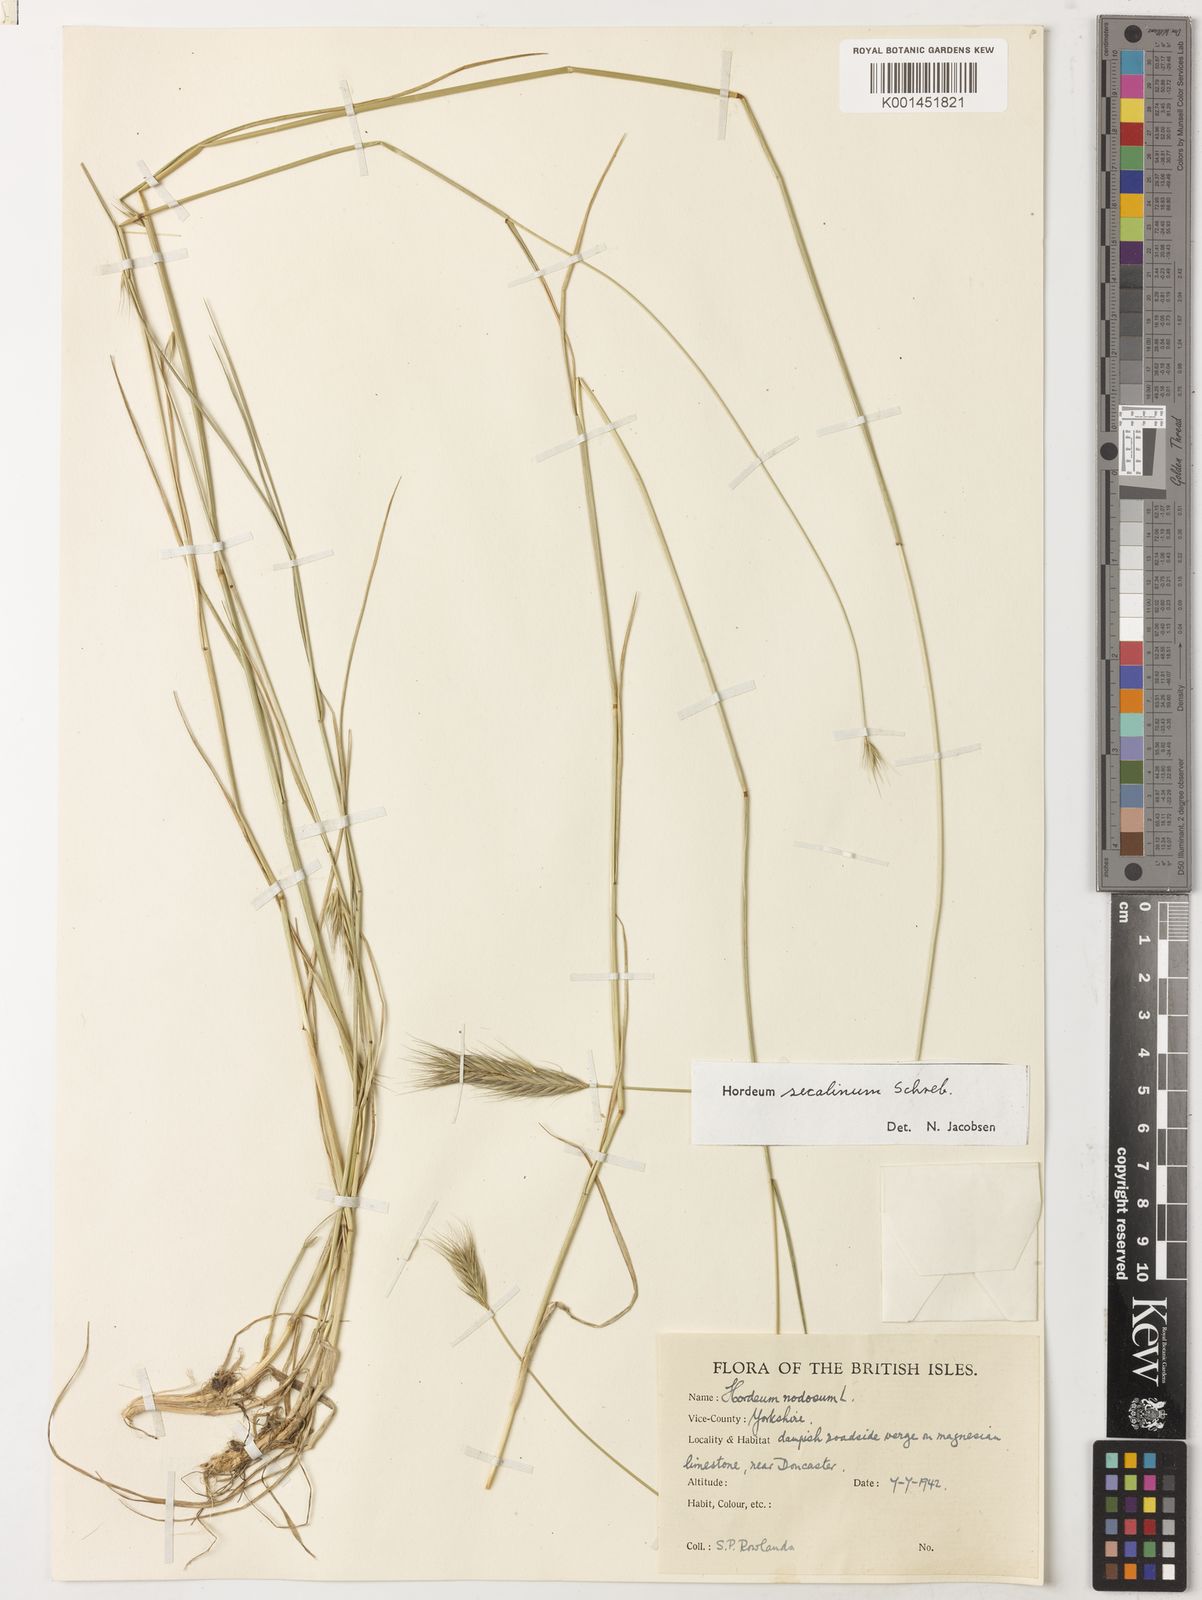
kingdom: Plantae
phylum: Tracheophyta
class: Liliopsida
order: Poales
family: Poaceae
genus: Hordeum
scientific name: Hordeum secalinum
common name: Meadow barley
